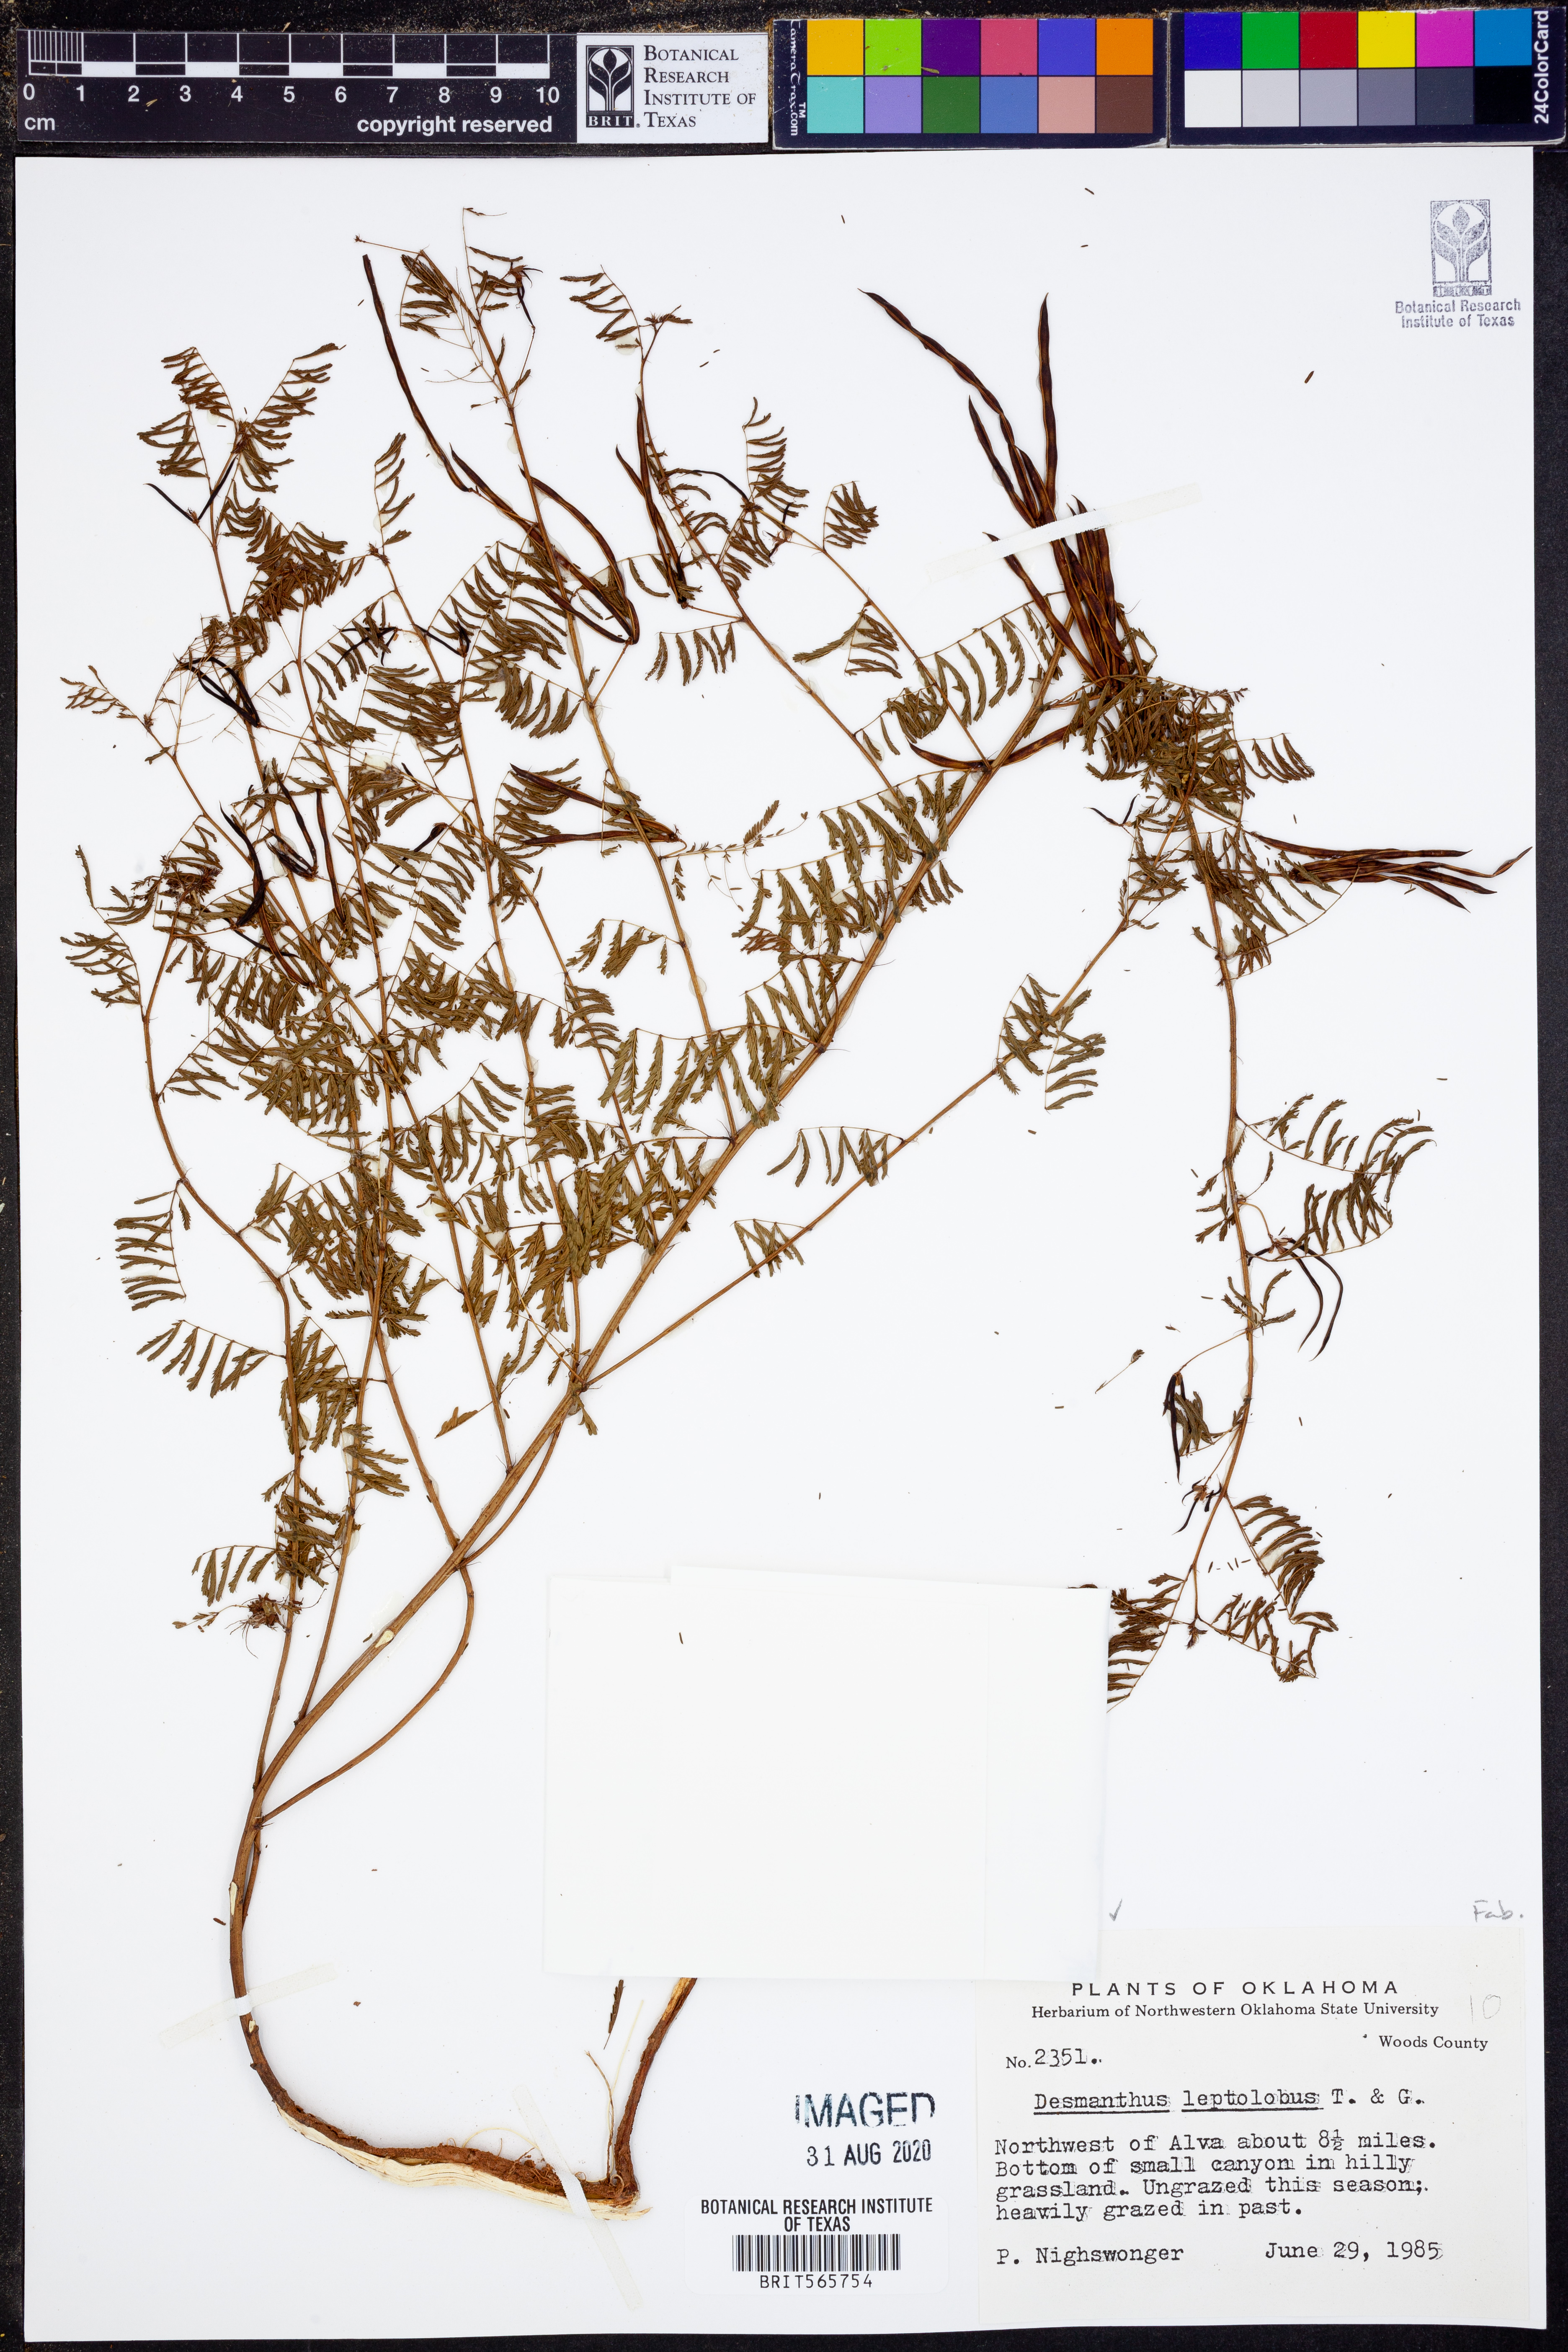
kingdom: Plantae
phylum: Tracheophyta
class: Magnoliopsida
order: Fabales
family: Fabaceae
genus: Desmanthus
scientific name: Desmanthus leptolobus
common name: Prairie-mimosa
